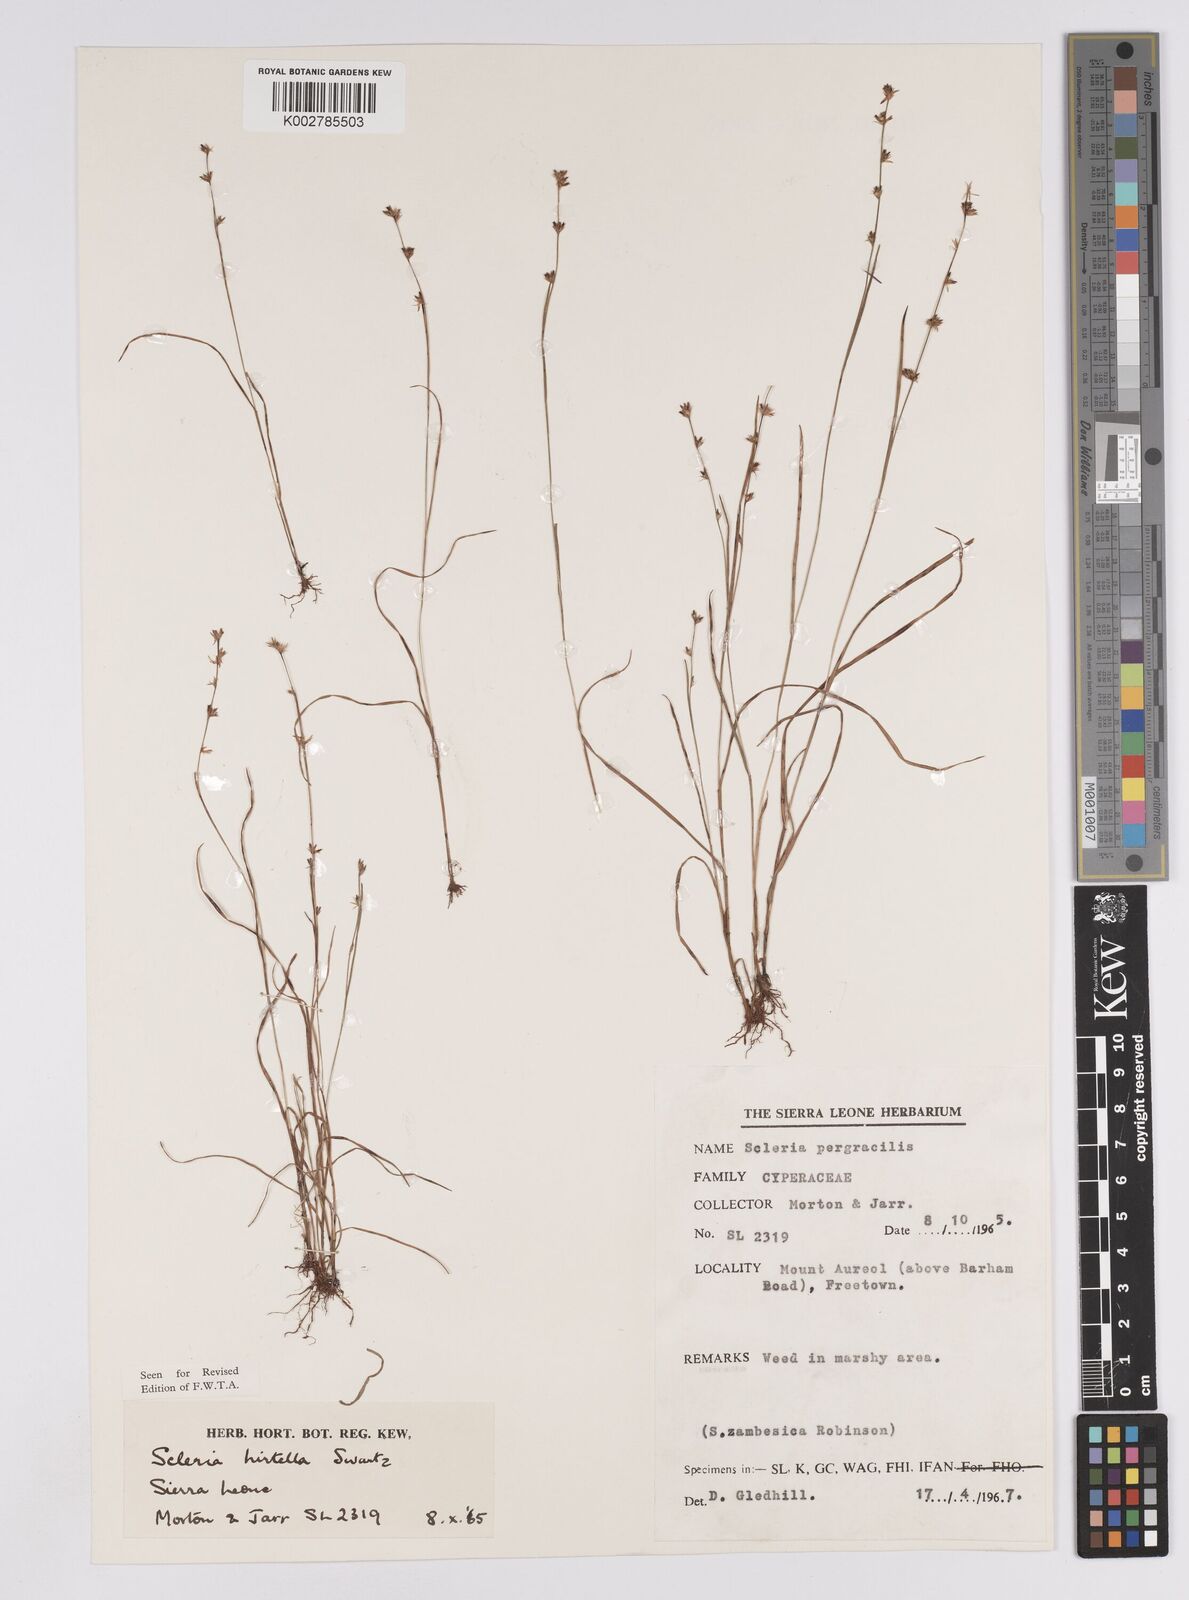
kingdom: Plantae
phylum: Tracheophyta
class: Liliopsida
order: Poales
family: Cyperaceae
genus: Scleria
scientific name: Scleria tricholepis
